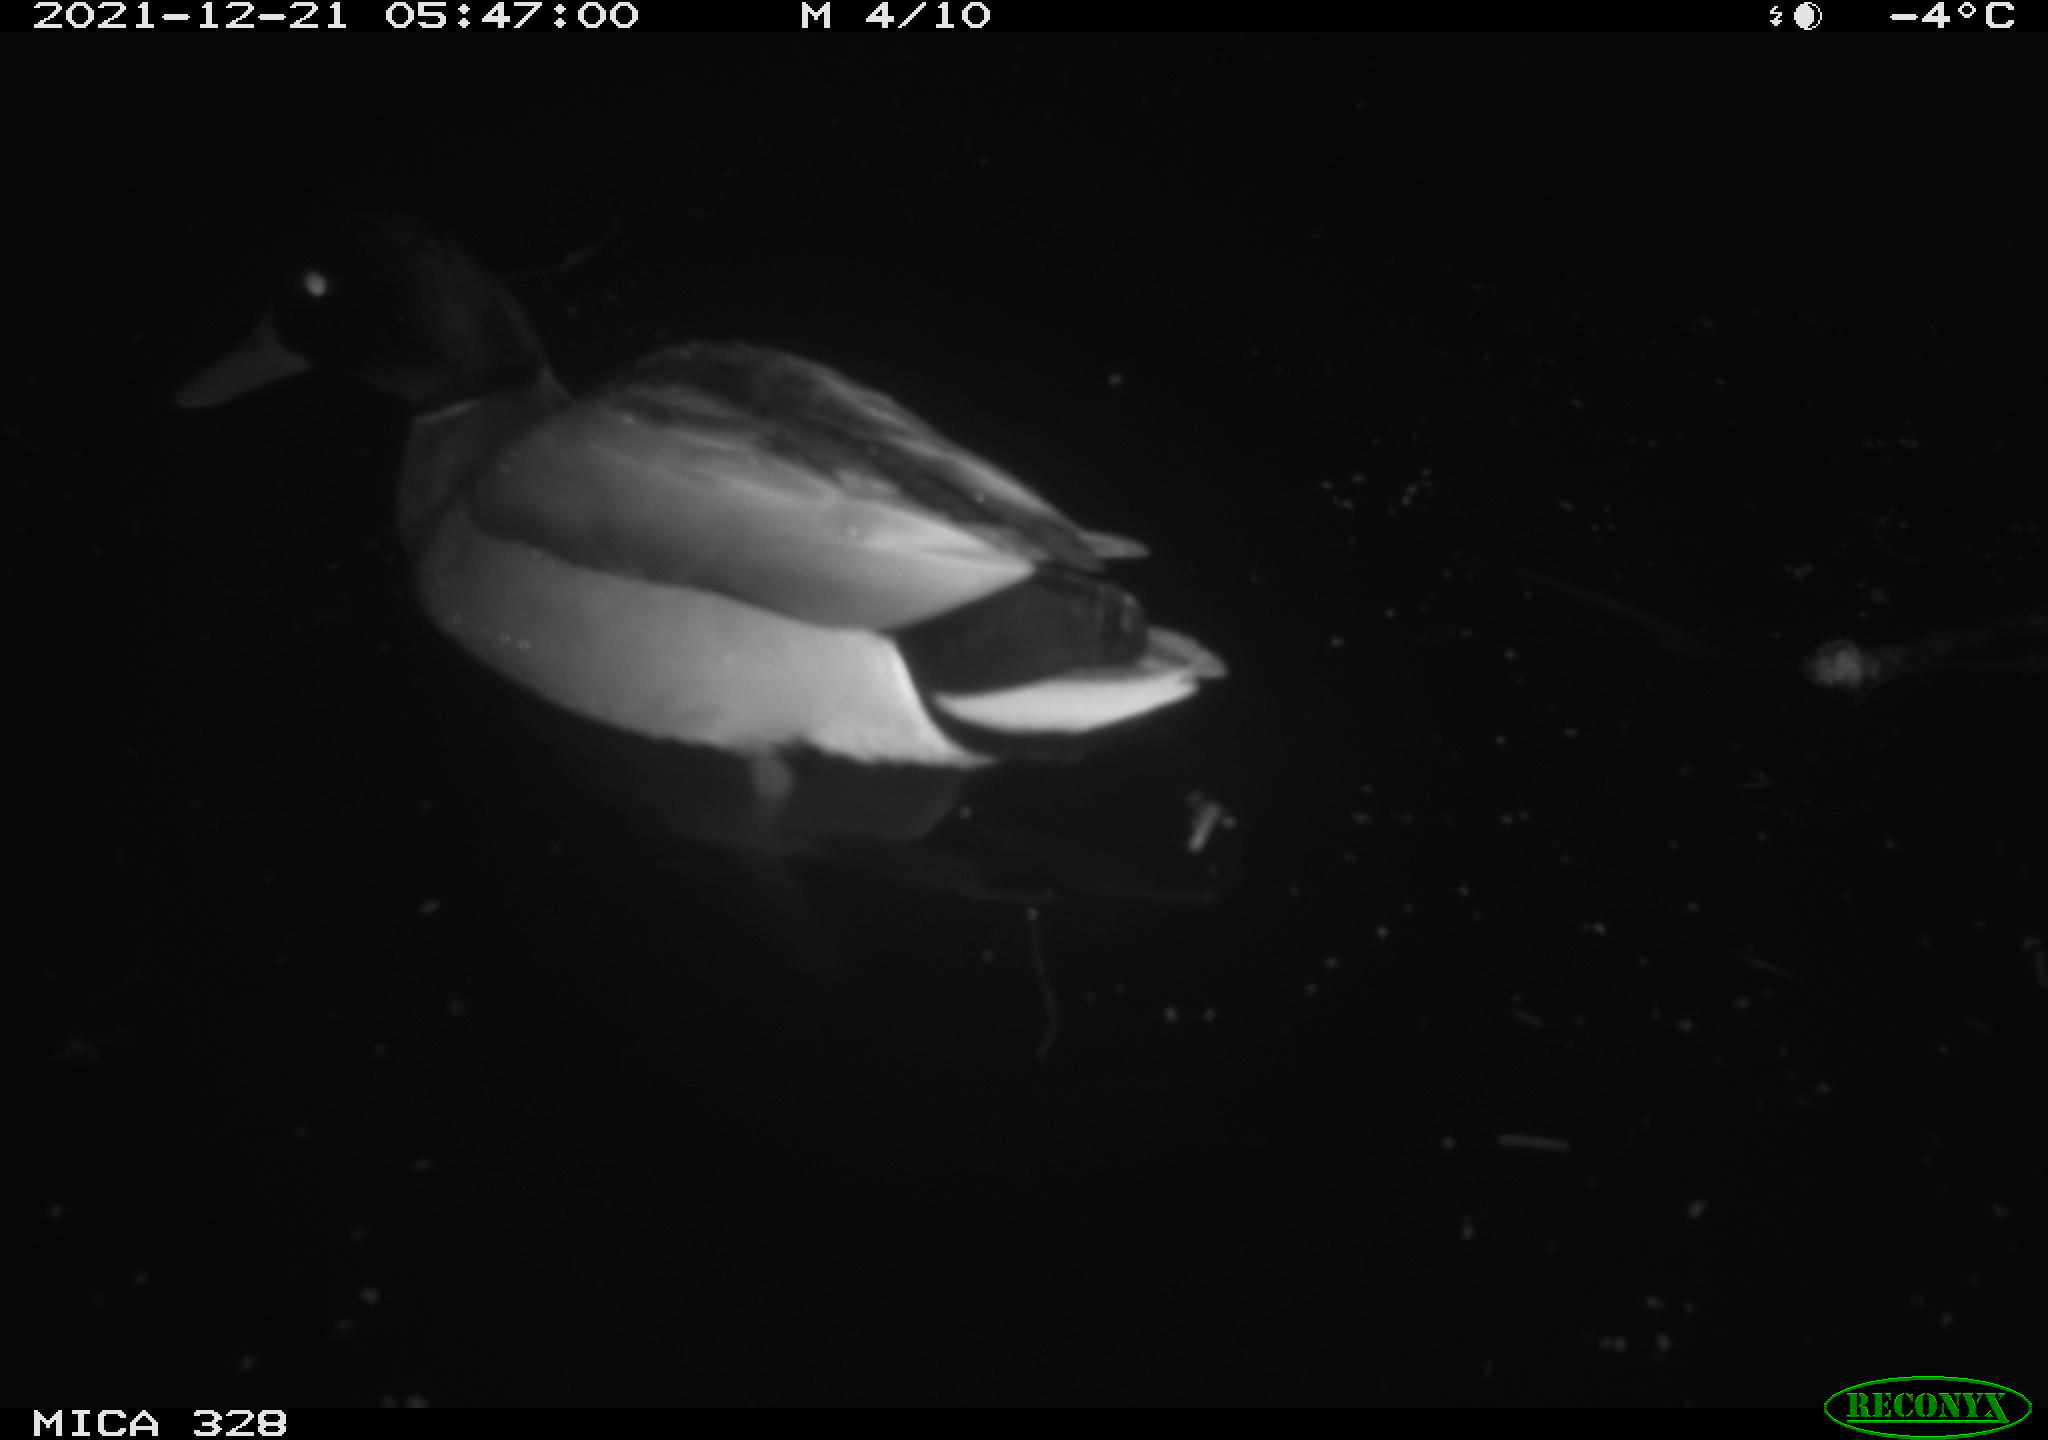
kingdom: Animalia
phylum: Chordata
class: Aves
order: Anseriformes
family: Anatidae
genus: Anas
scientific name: Anas platyrhynchos
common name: Mallard
